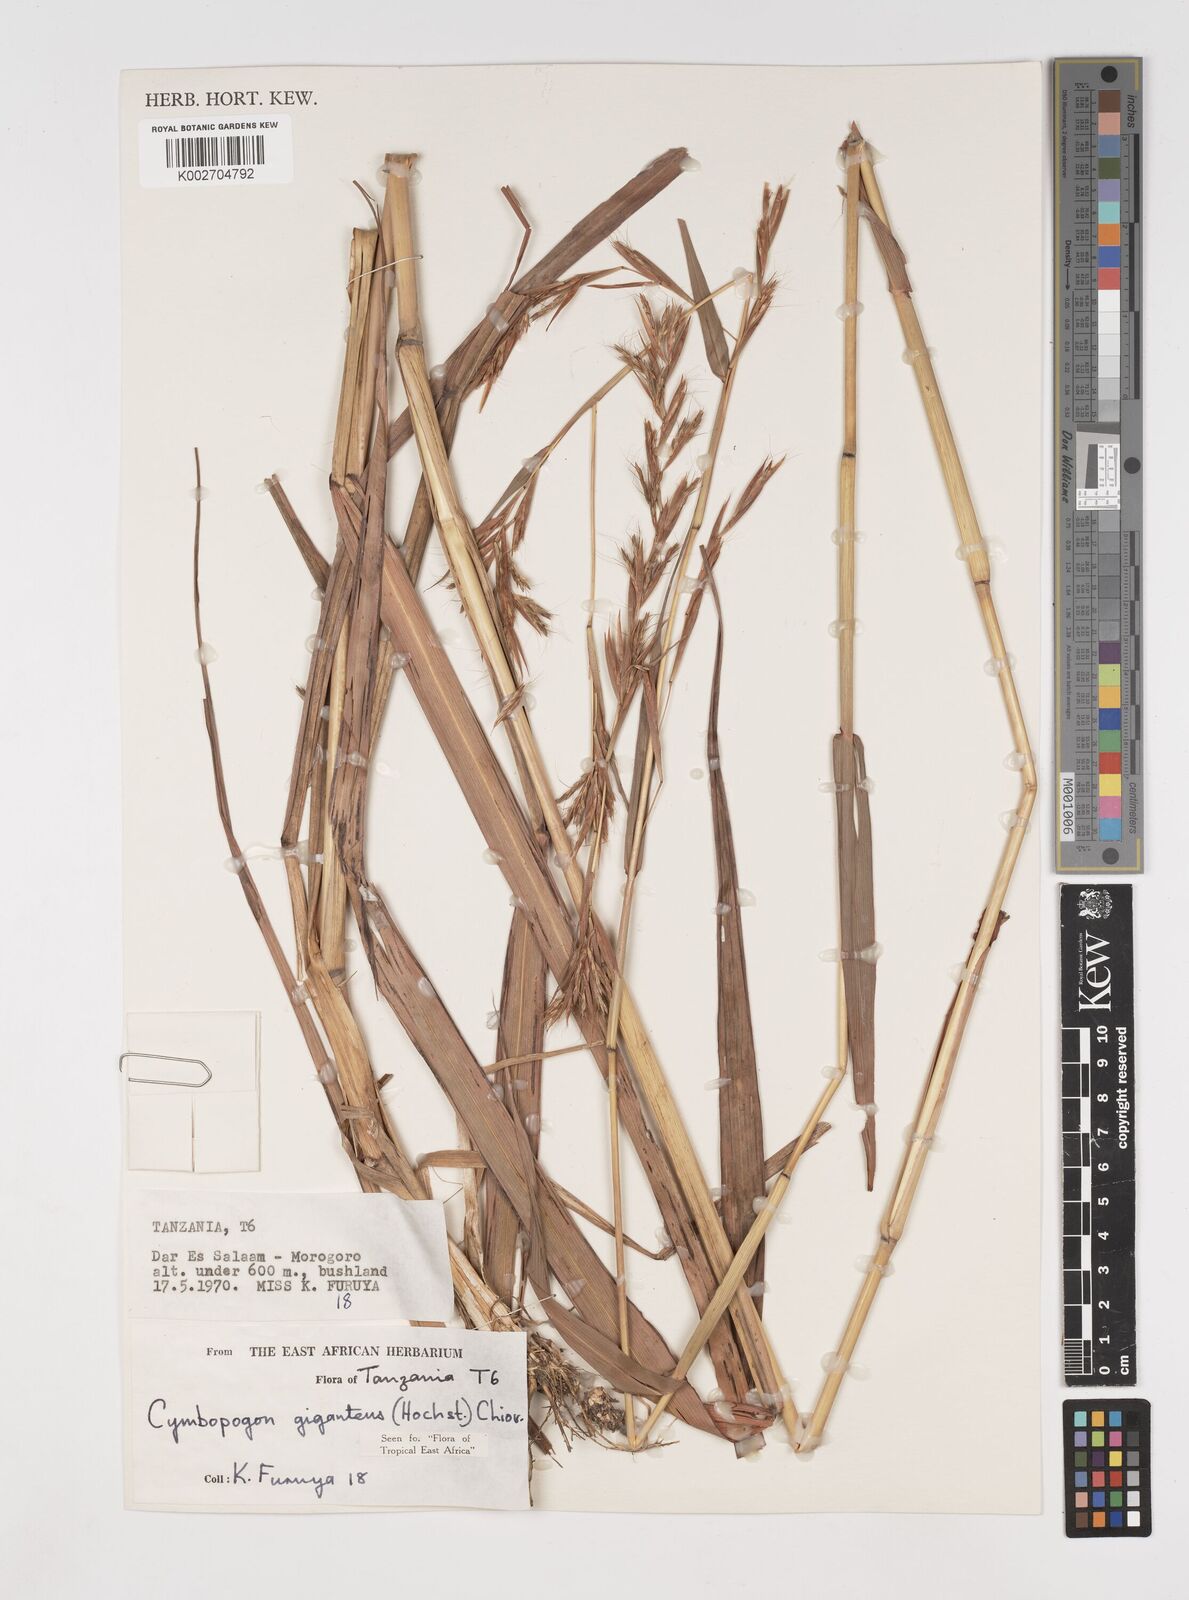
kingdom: Plantae
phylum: Tracheophyta
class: Liliopsida
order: Poales
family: Poaceae
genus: Cymbopogon
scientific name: Cymbopogon giganteus
